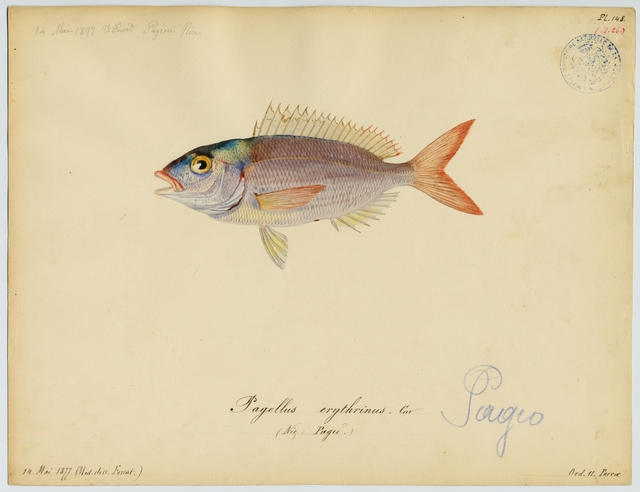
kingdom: Animalia
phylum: Chordata
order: Perciformes
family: Sparidae
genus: Pagellus
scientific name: Pagellus acarne
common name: Axillary sea-bream
